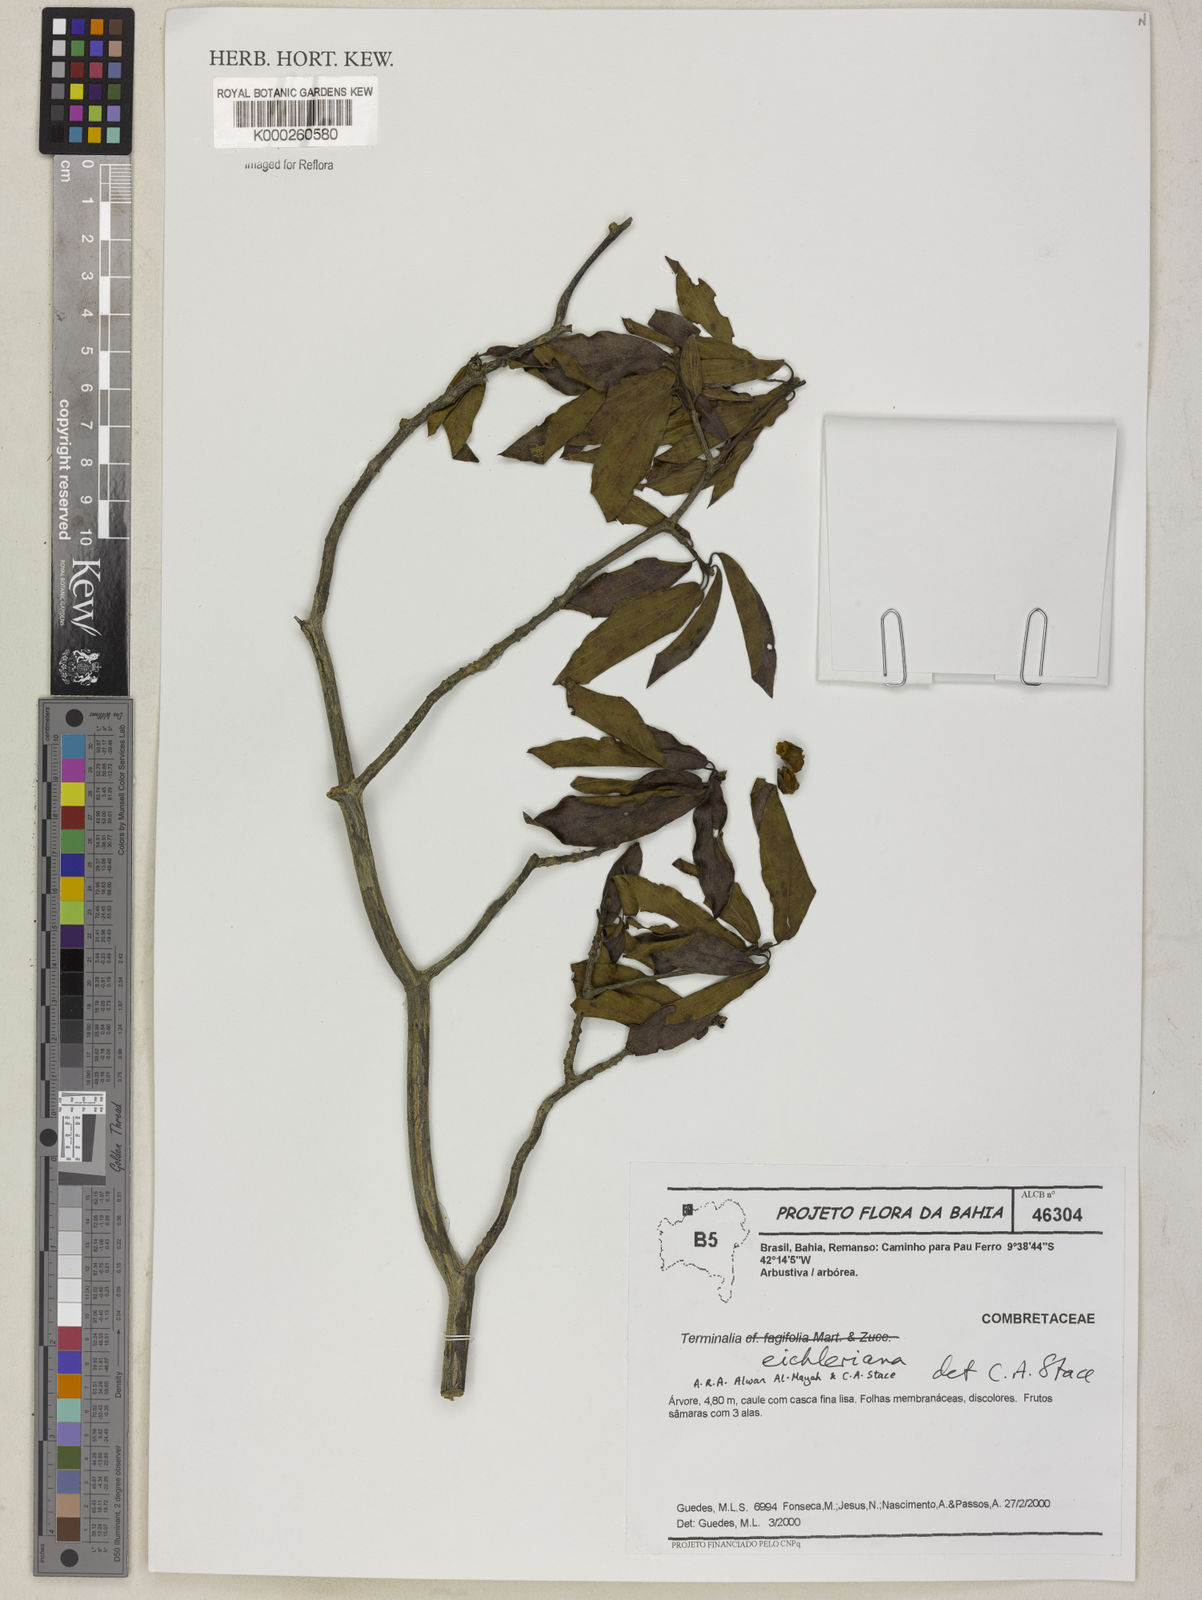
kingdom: Plantae
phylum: Tracheophyta
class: Magnoliopsida
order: Myrtales
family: Combretaceae
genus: Terminalia
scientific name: Terminalia eichleriana
